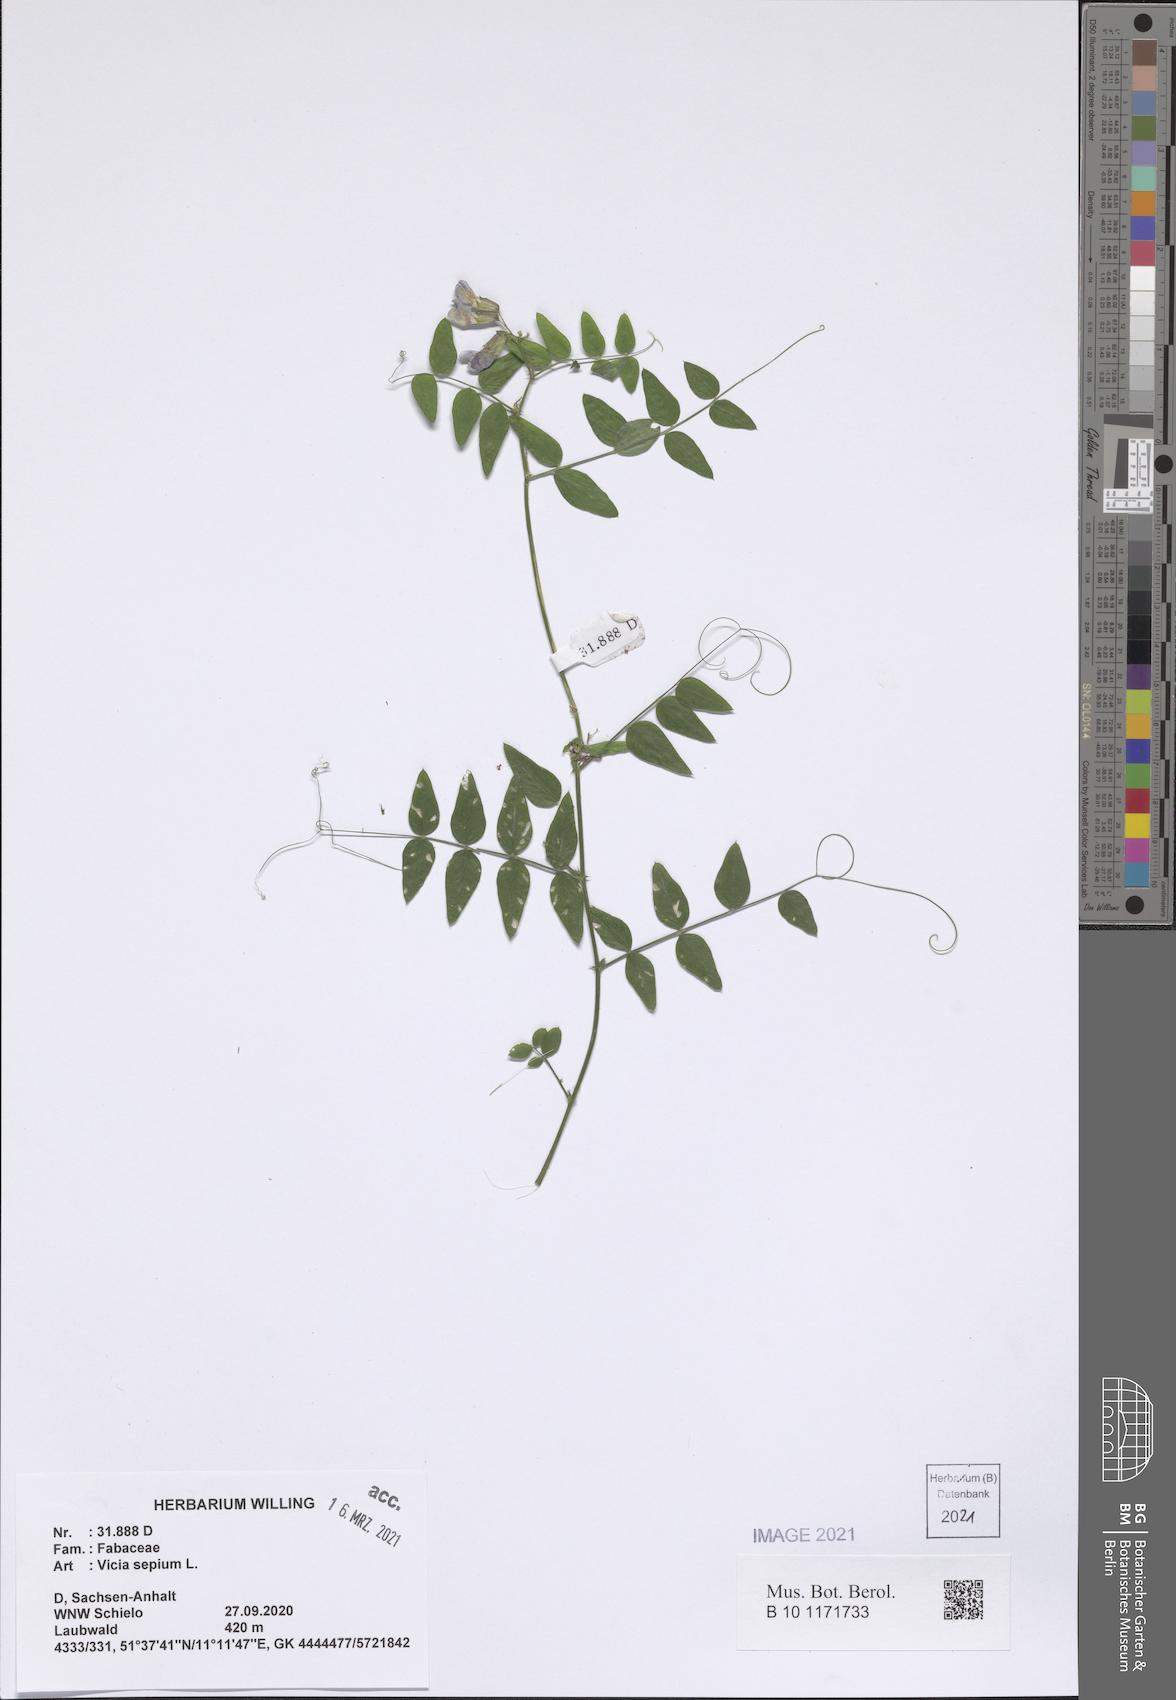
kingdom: Plantae
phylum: Tracheophyta
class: Magnoliopsida
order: Fabales
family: Fabaceae
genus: Vicia
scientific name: Vicia sepium
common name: Bush vetch
